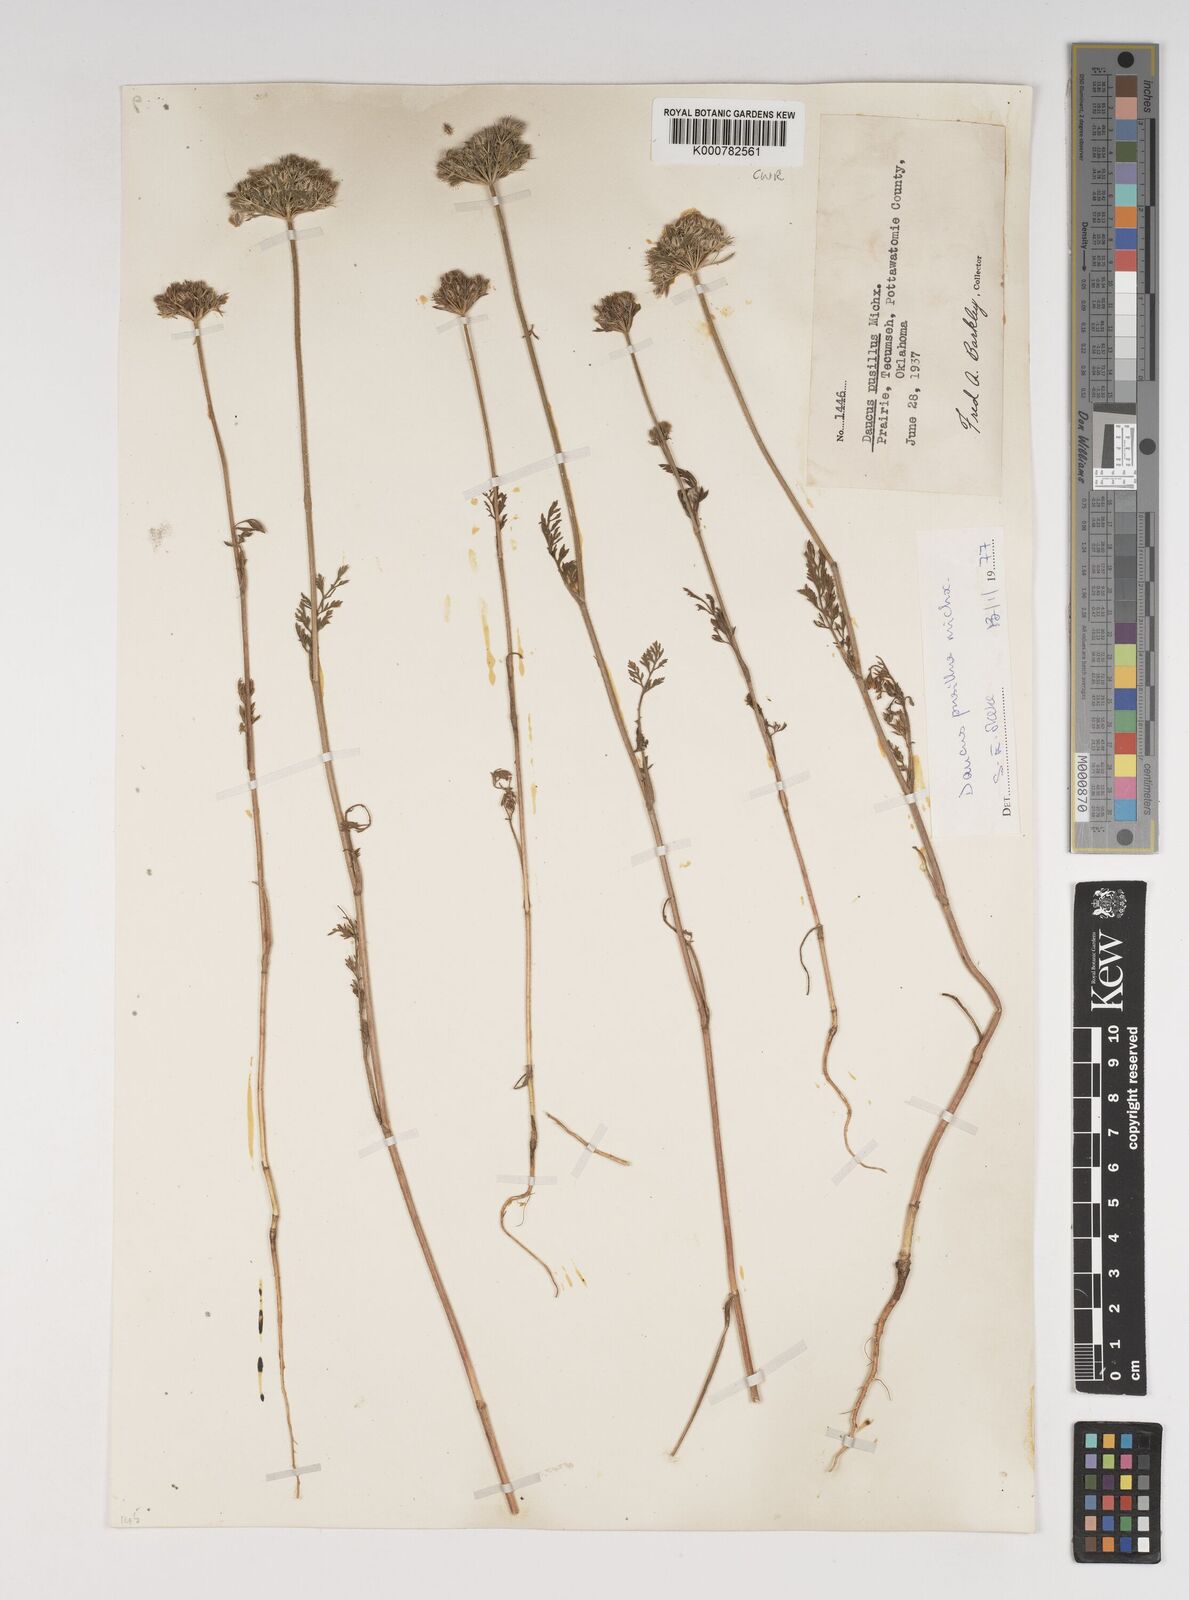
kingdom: Plantae
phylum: Tracheophyta
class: Magnoliopsida
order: Apiales
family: Apiaceae
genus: Daucus
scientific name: Daucus pusillus
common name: Southwest wild carrot
